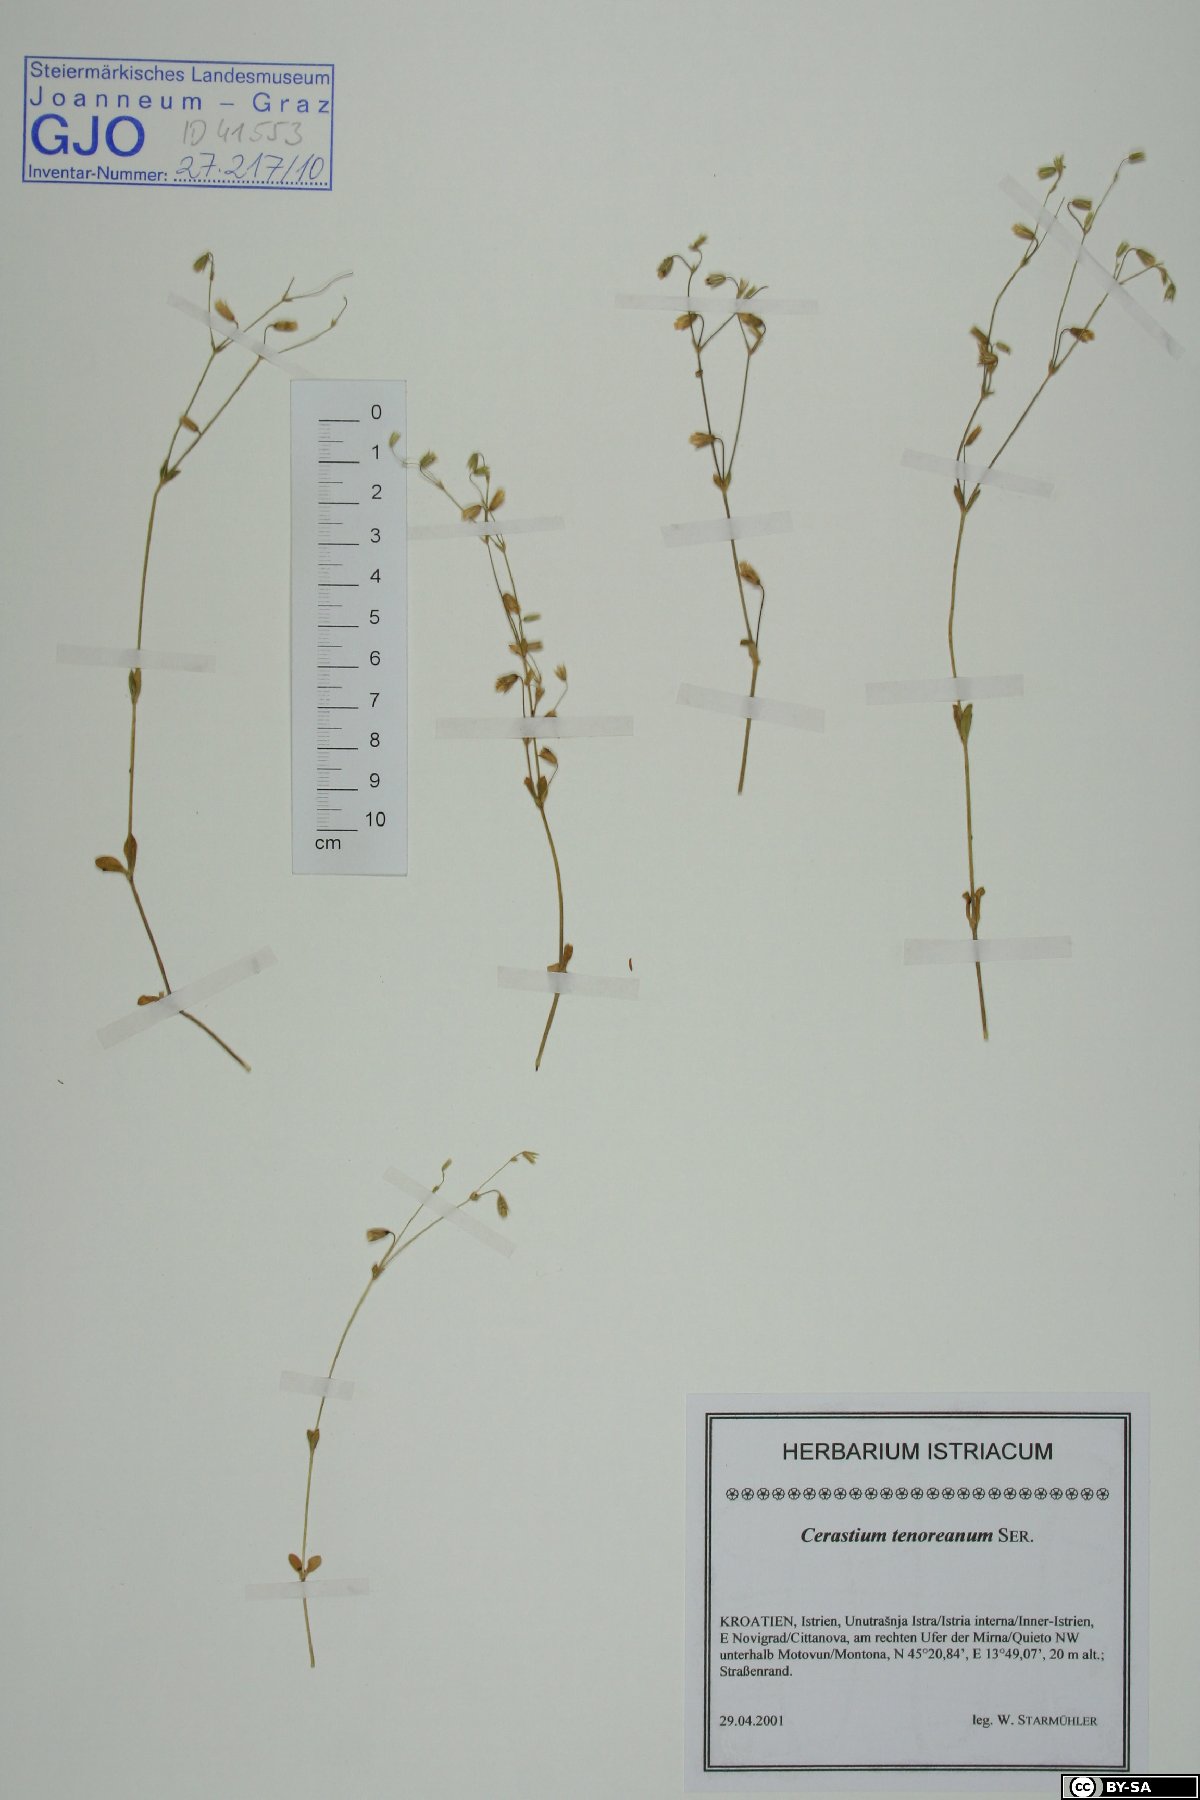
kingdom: Plantae
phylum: Tracheophyta
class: Magnoliopsida
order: Caryophyllales
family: Caryophyllaceae
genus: Cerastium
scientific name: Cerastium tenoreanum
